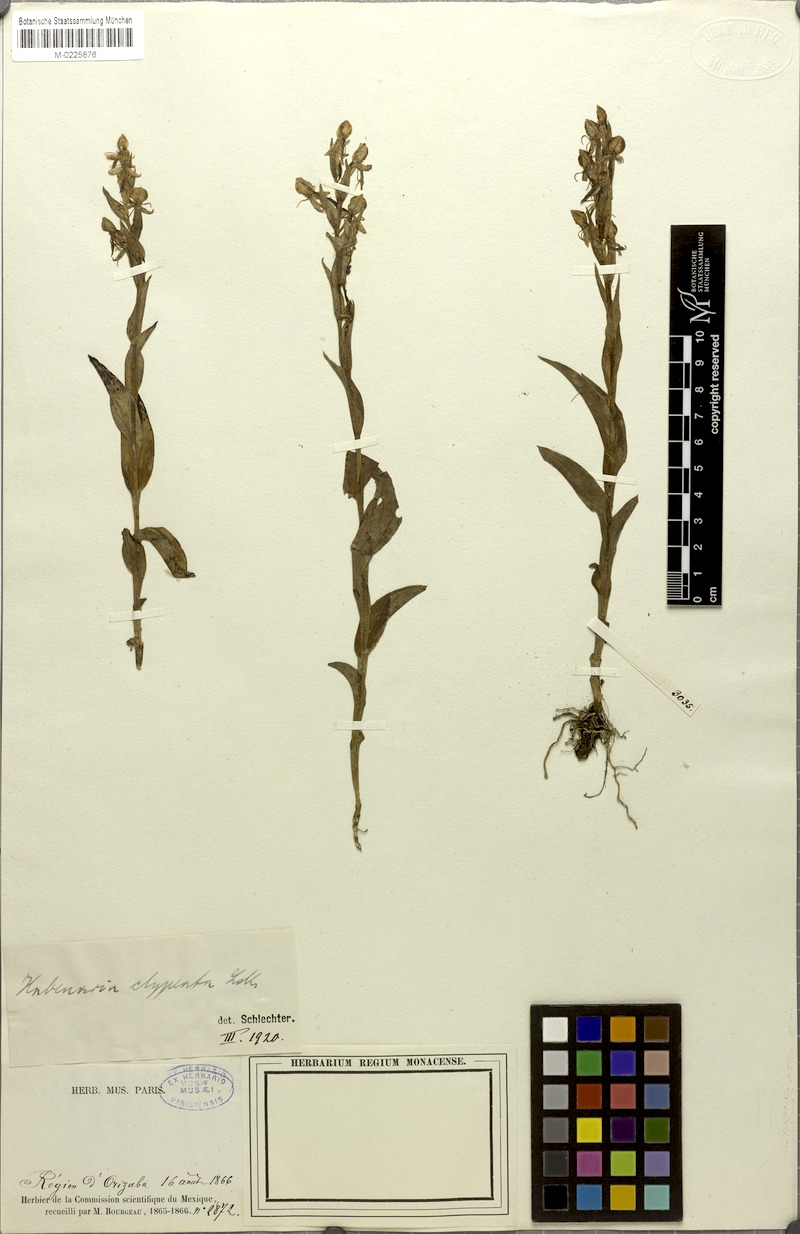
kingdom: Plantae
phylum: Tracheophyta
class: Liliopsida
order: Asparagales
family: Orchidaceae
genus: Habenaria
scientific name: Habenaria clypeata
